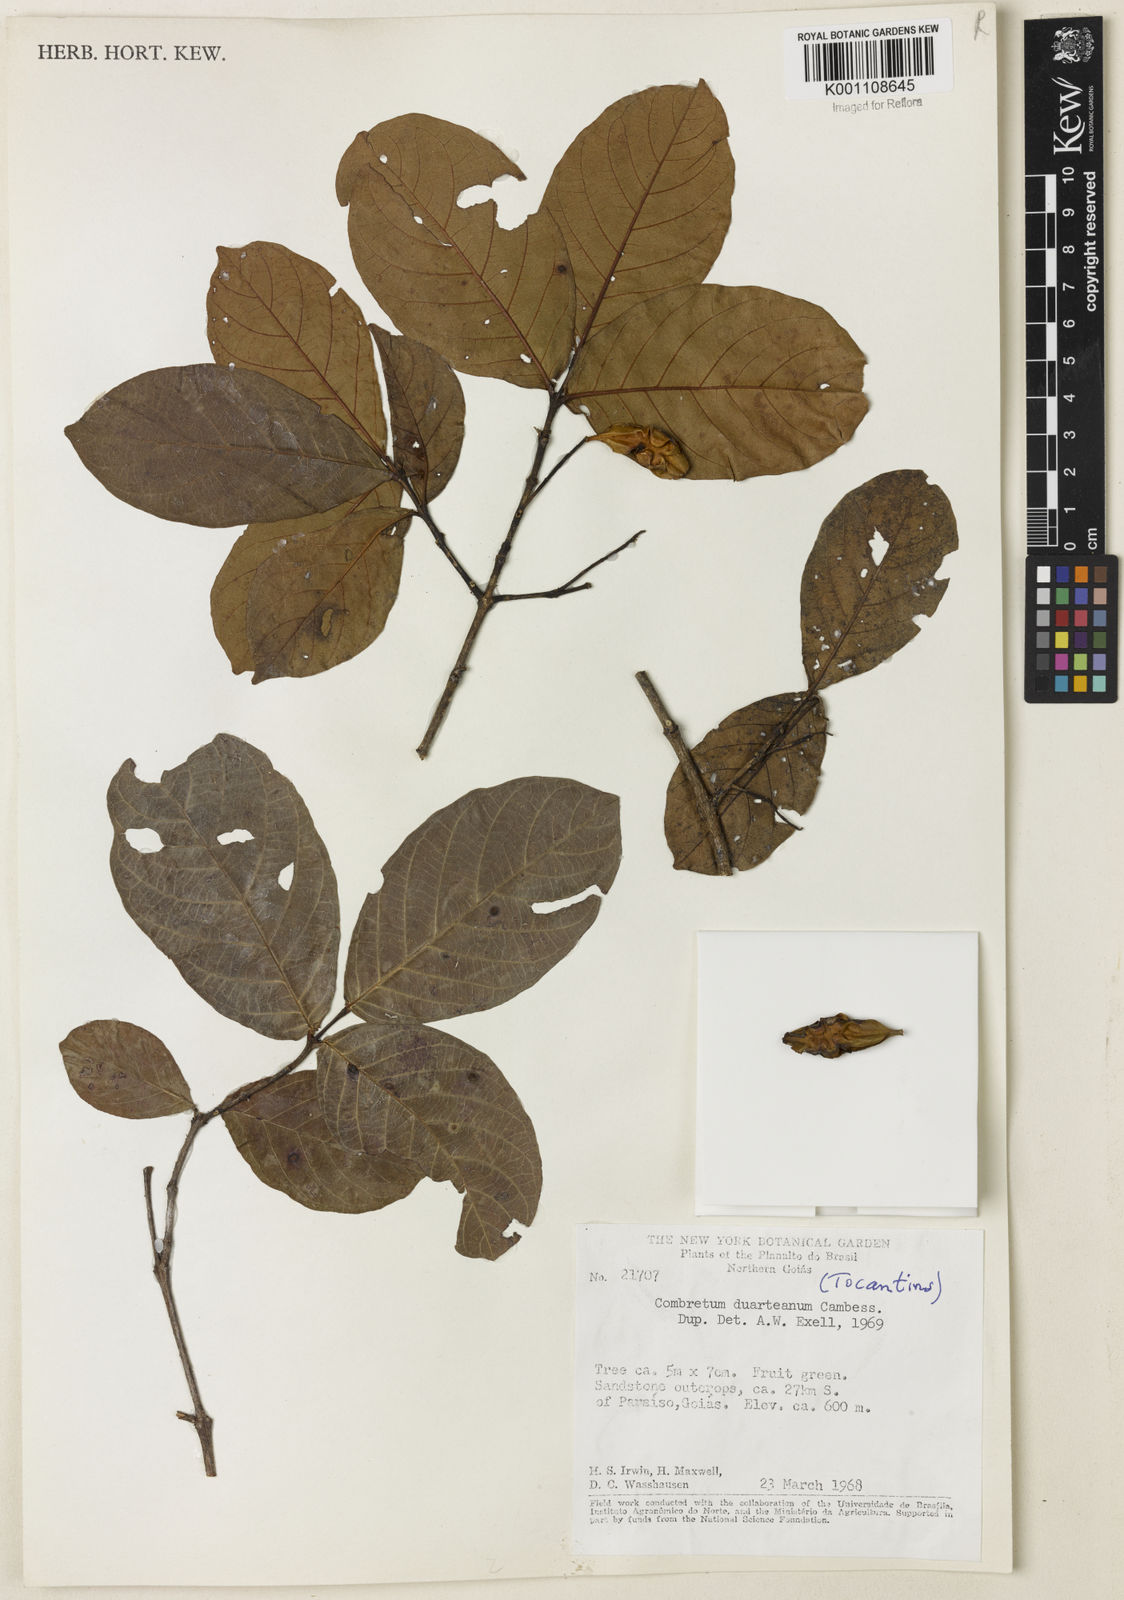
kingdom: Plantae
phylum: Tracheophyta
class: Magnoliopsida
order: Myrtales
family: Combretaceae
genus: Combretum
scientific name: Combretum duarteanum
